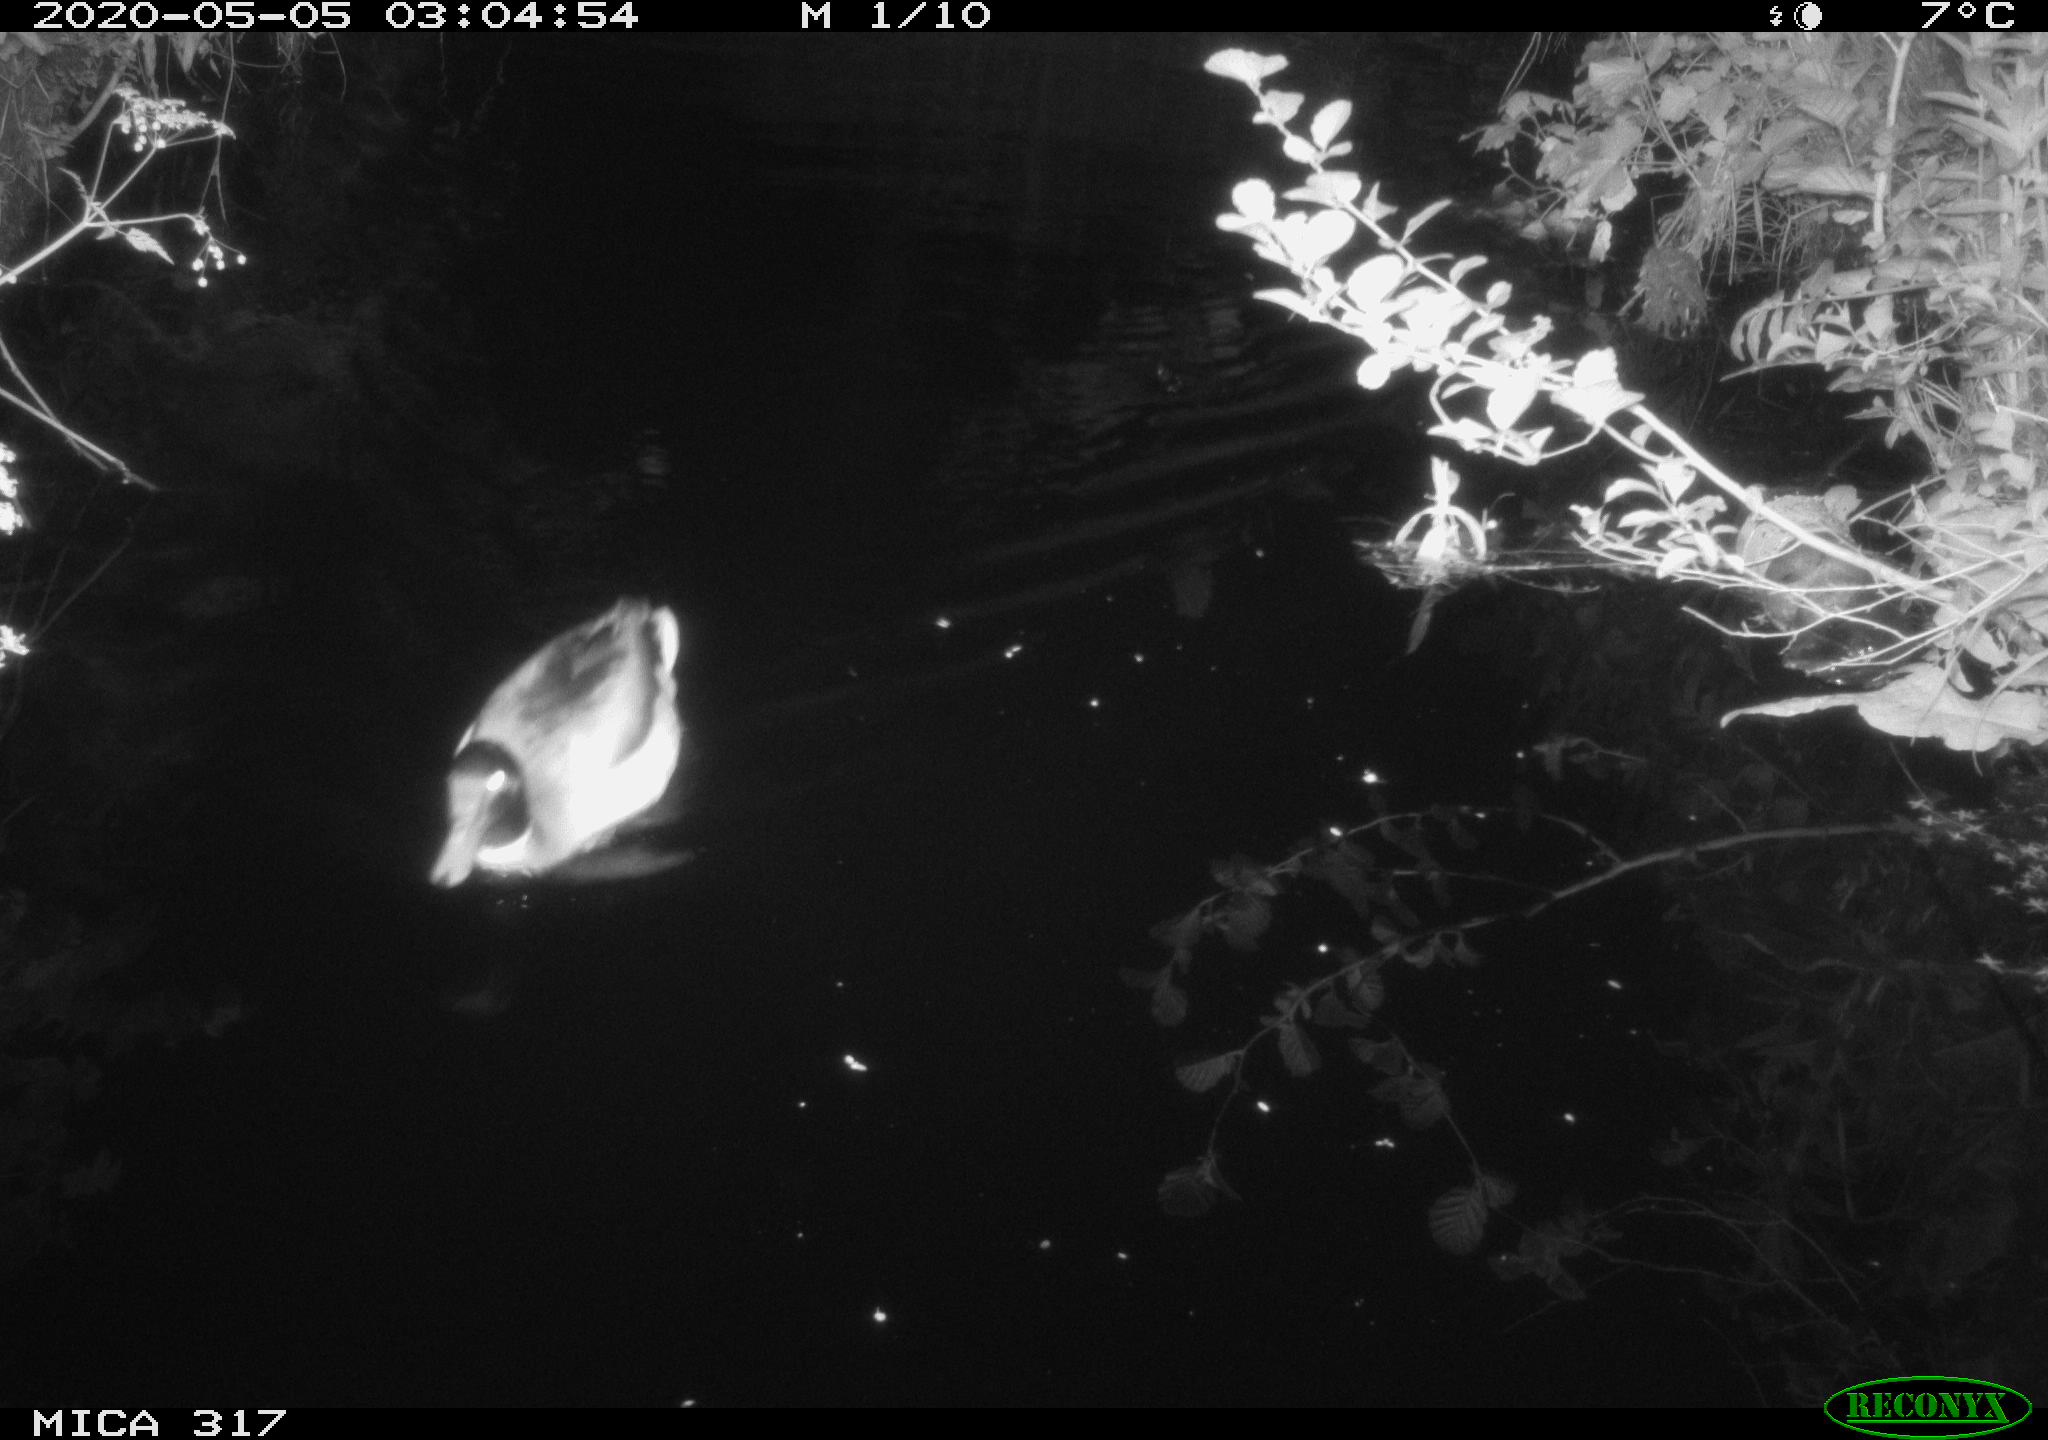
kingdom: Animalia
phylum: Chordata
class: Aves
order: Anseriformes
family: Anatidae
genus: Anas
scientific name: Anas platyrhynchos
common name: Mallard
